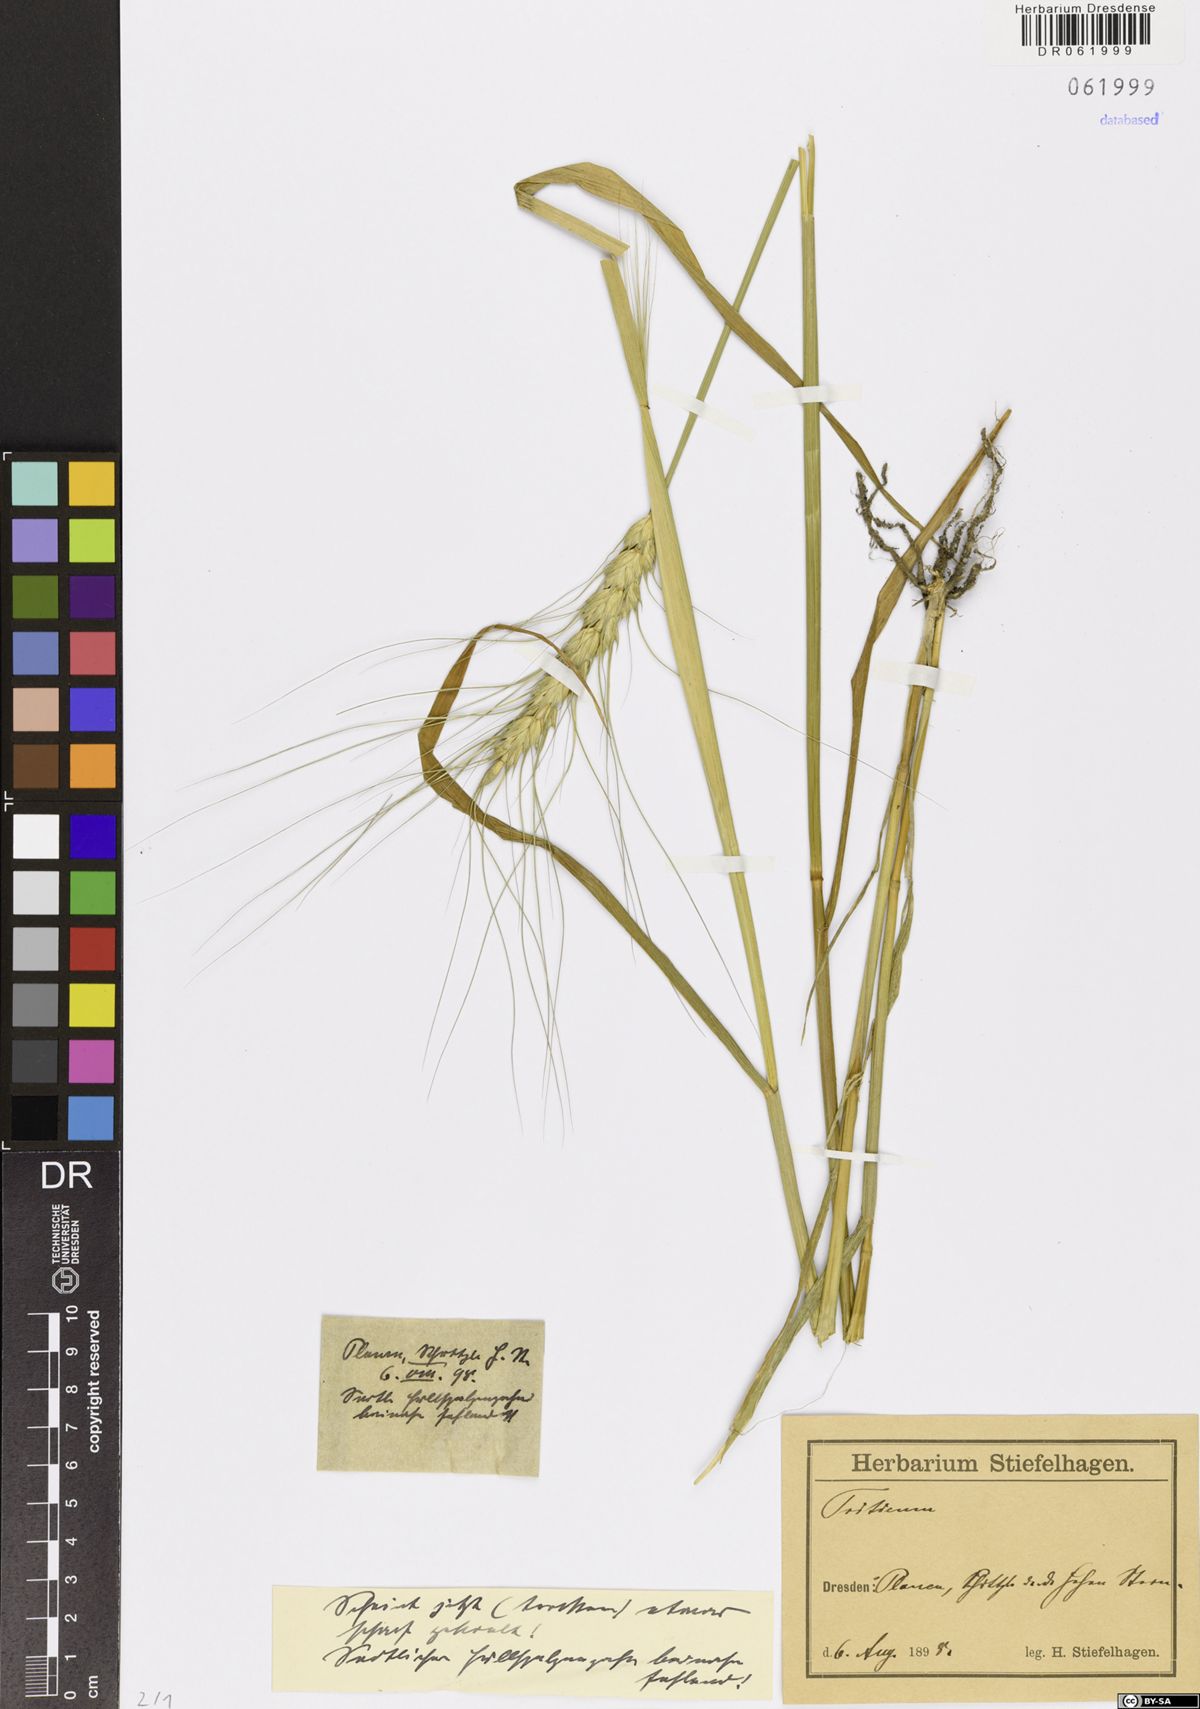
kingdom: Plantae
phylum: Tracheophyta
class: Liliopsida
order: Poales
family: Poaceae
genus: Triticum
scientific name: Triticum
